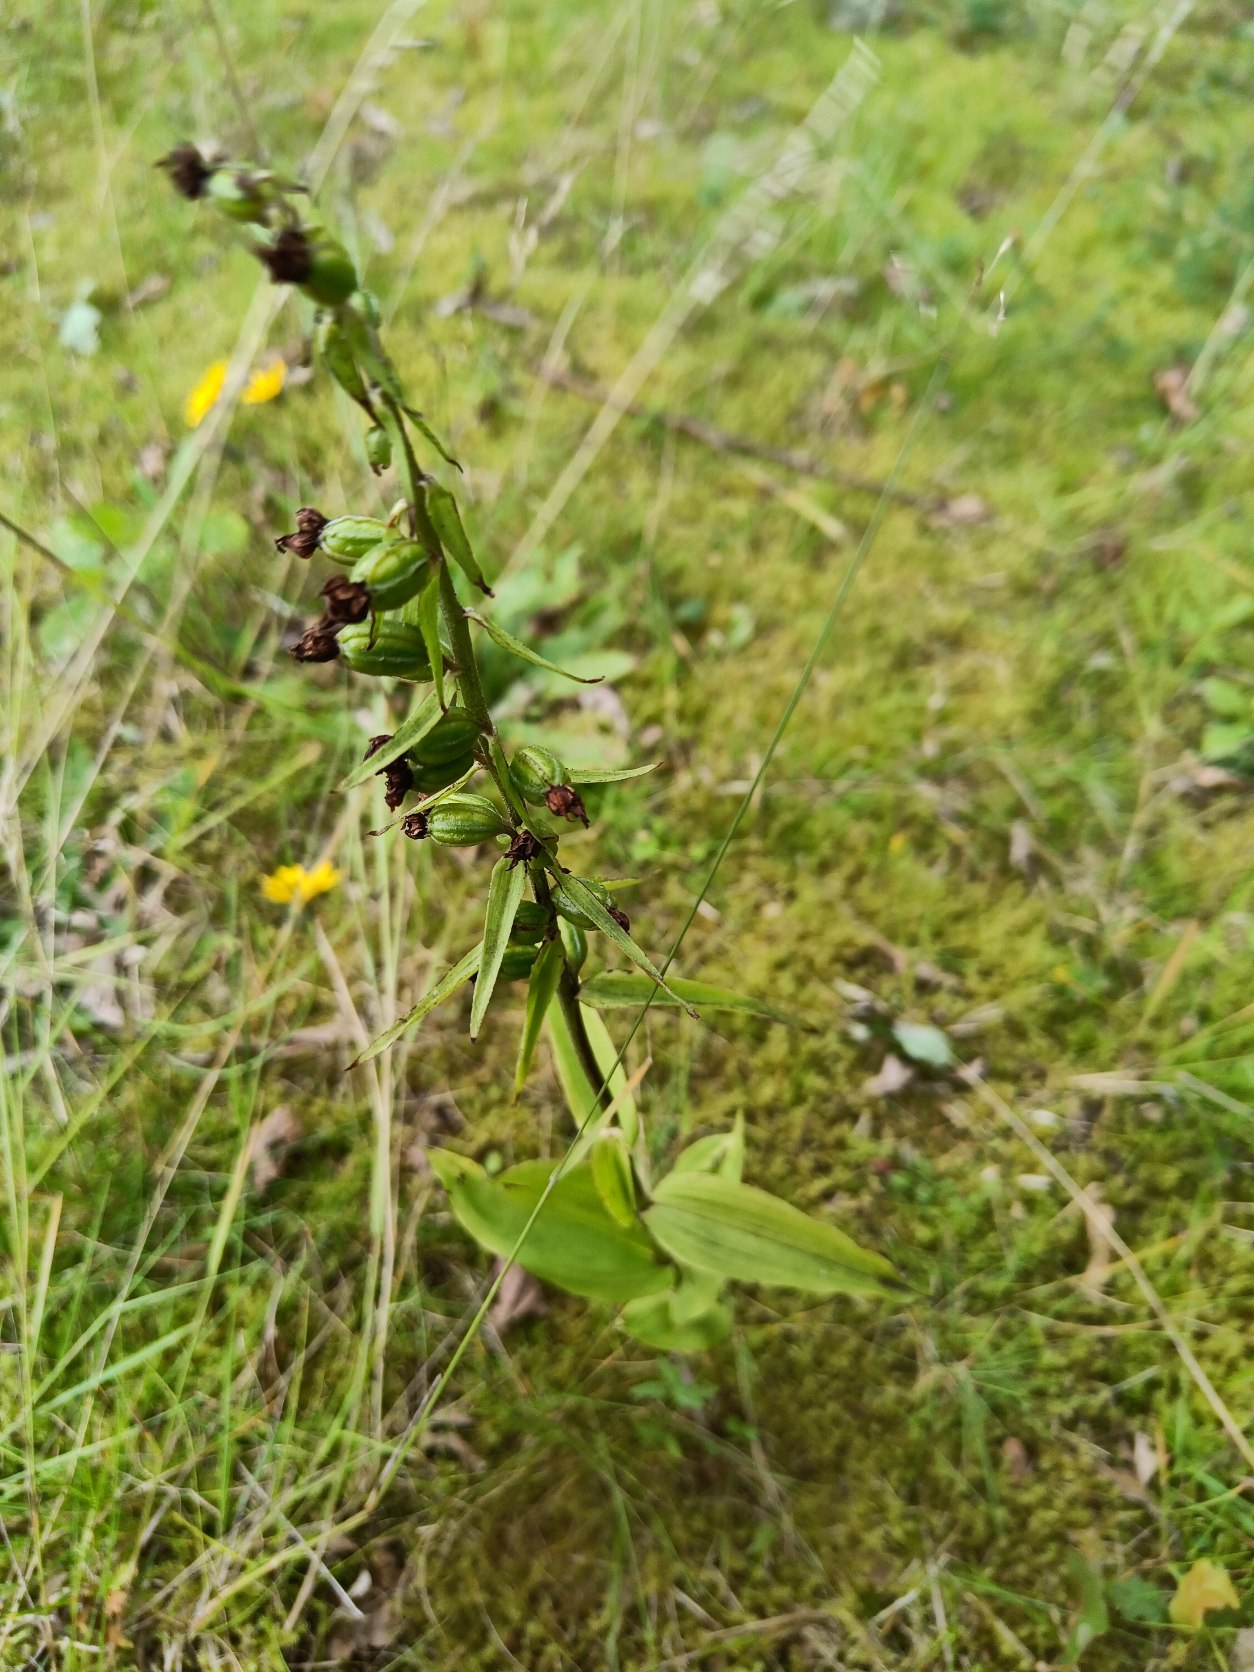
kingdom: Plantae
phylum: Tracheophyta
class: Liliopsida
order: Asparagales
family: Orchidaceae
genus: Epipactis
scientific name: Epipactis helleborine
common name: Skov-hullæbe
